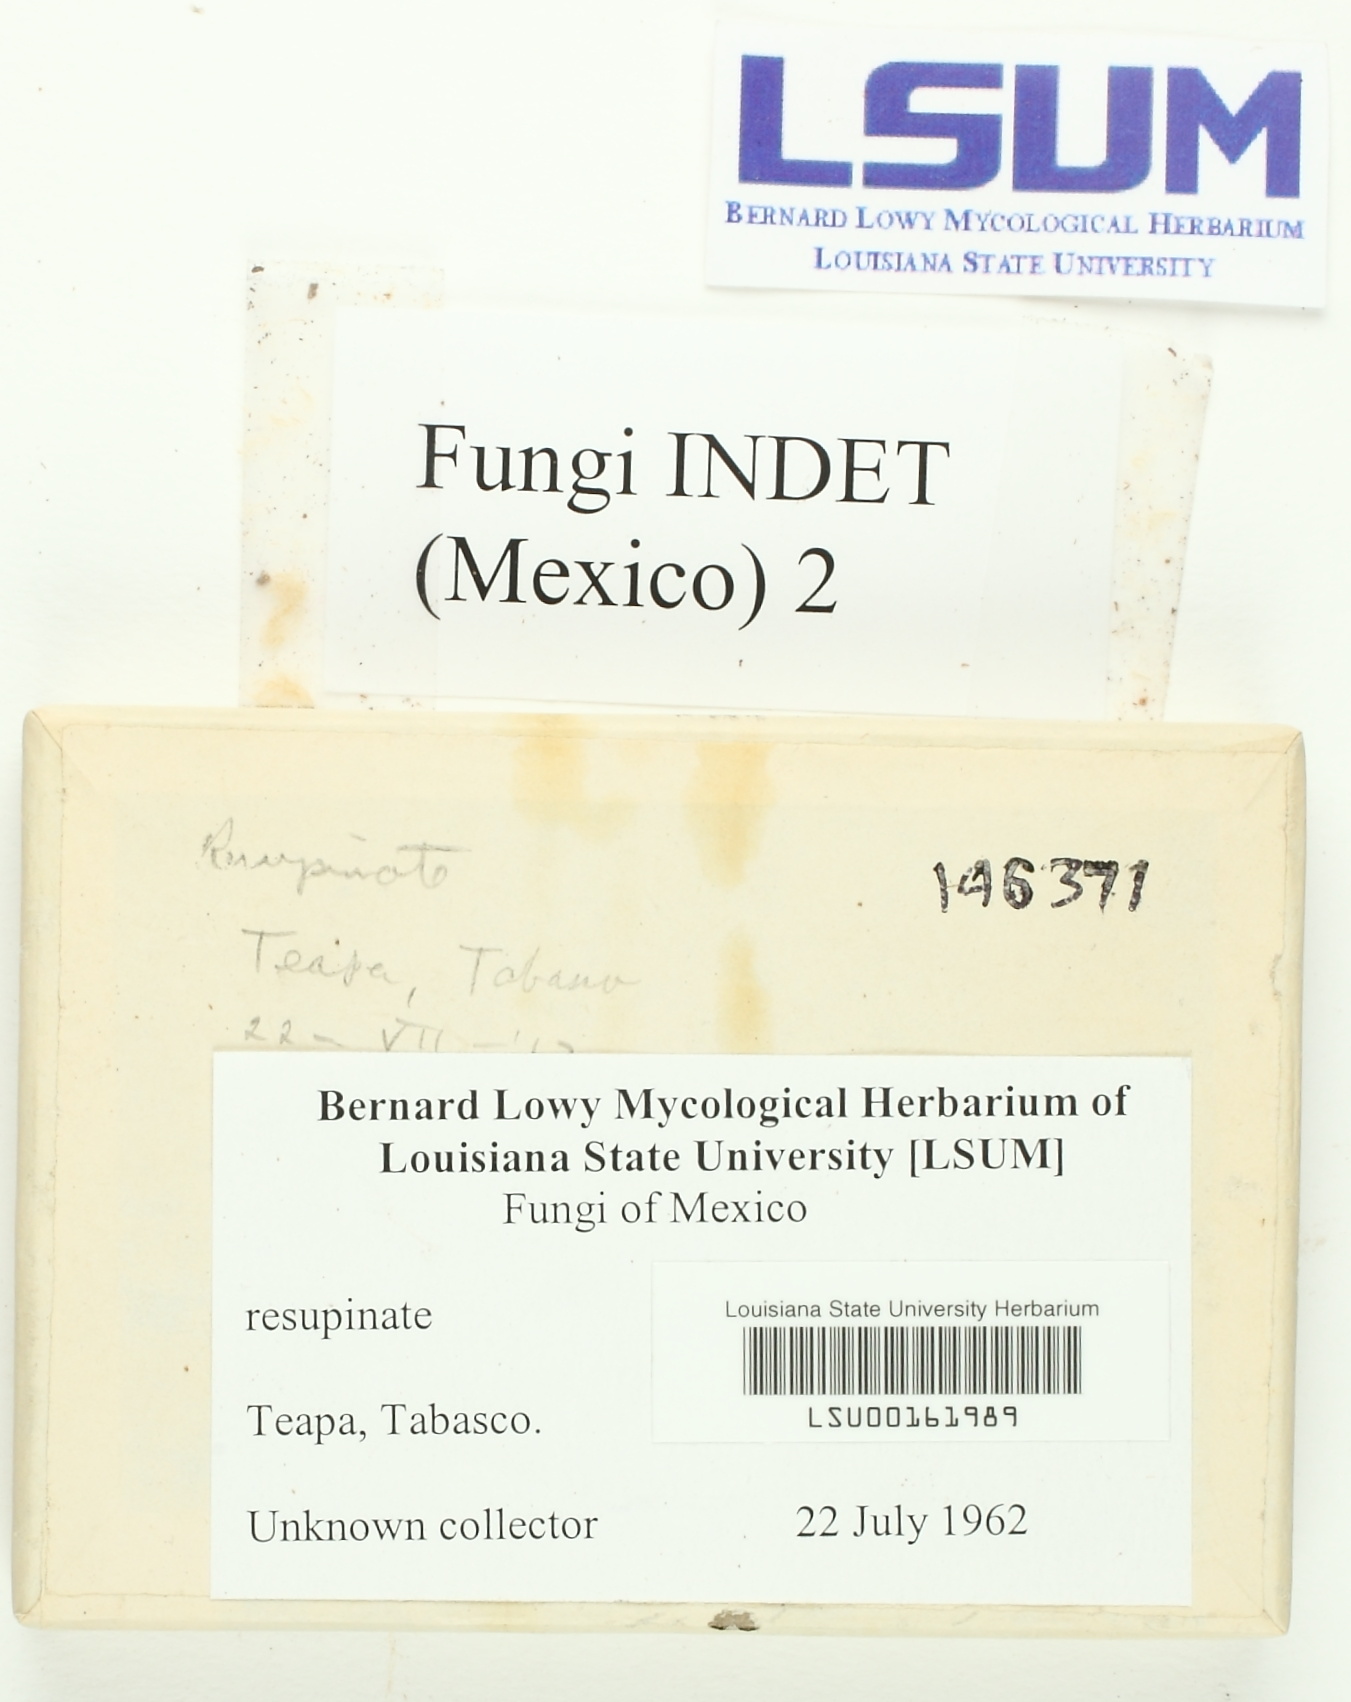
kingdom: Fungi
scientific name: Fungi
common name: Fungi
